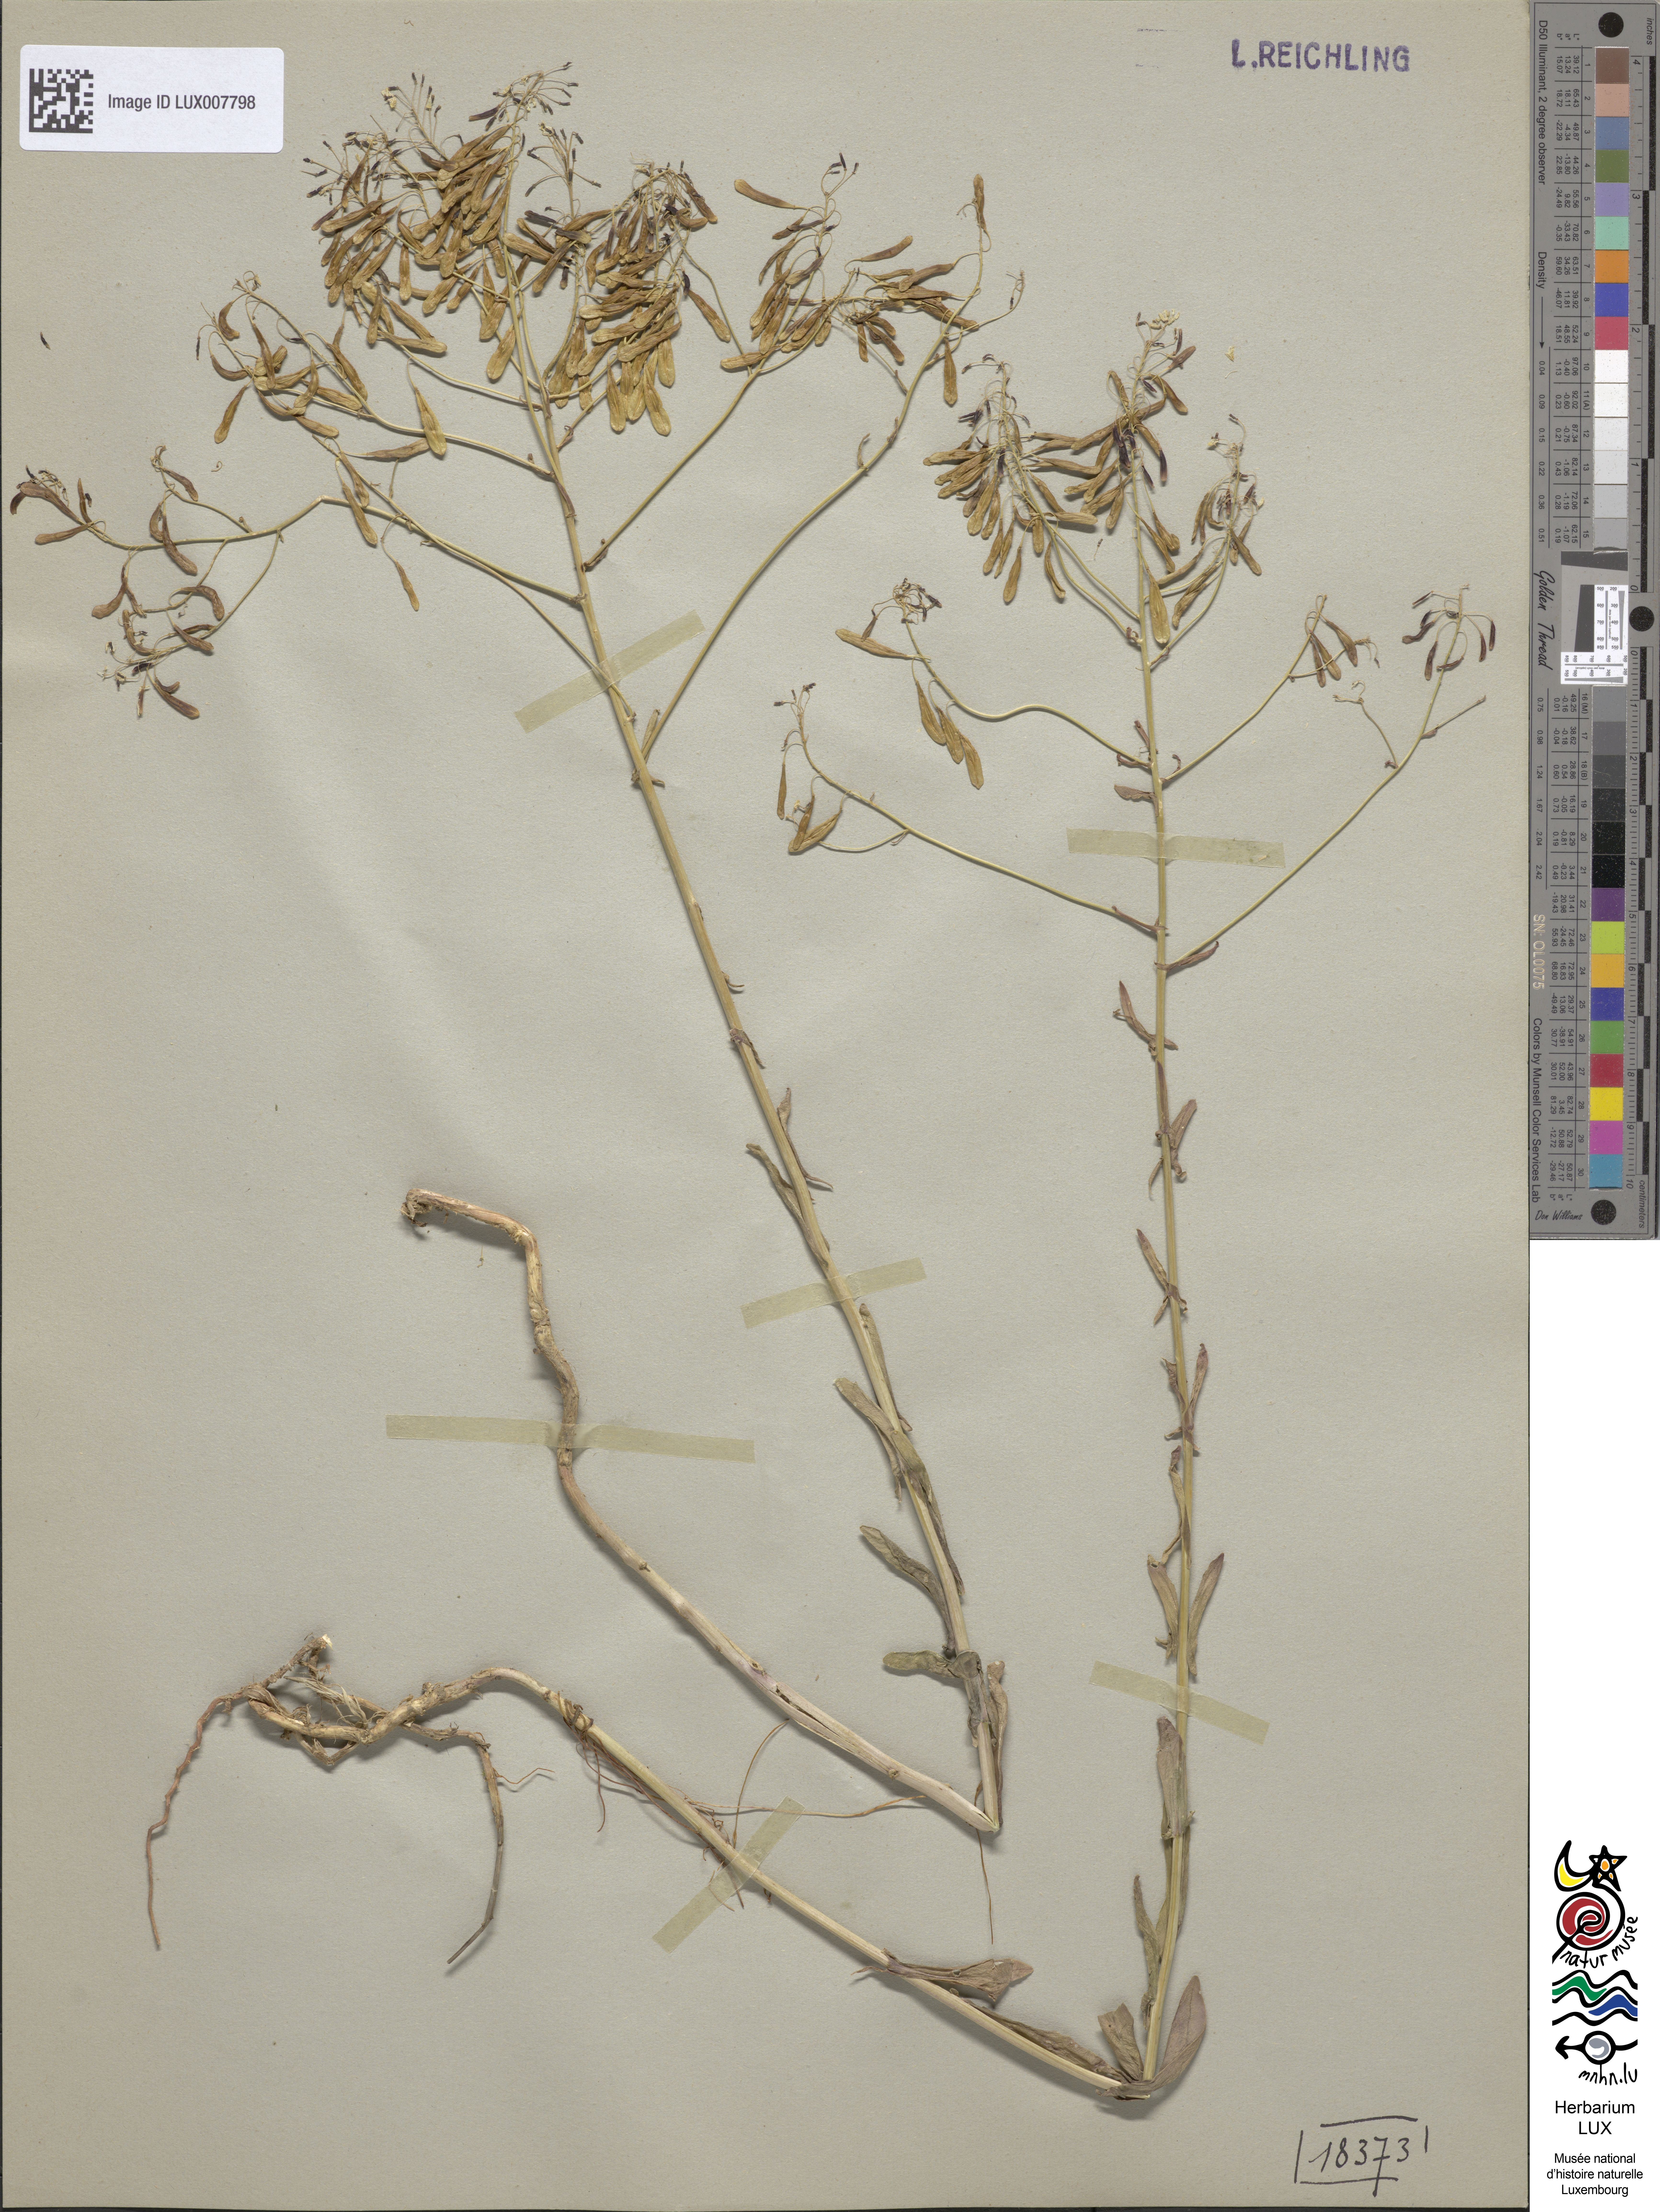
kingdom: Plantae
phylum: Tracheophyta
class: Magnoliopsida
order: Brassicales
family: Brassicaceae
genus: Isatis
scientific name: Isatis tinctoria
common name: Woad
